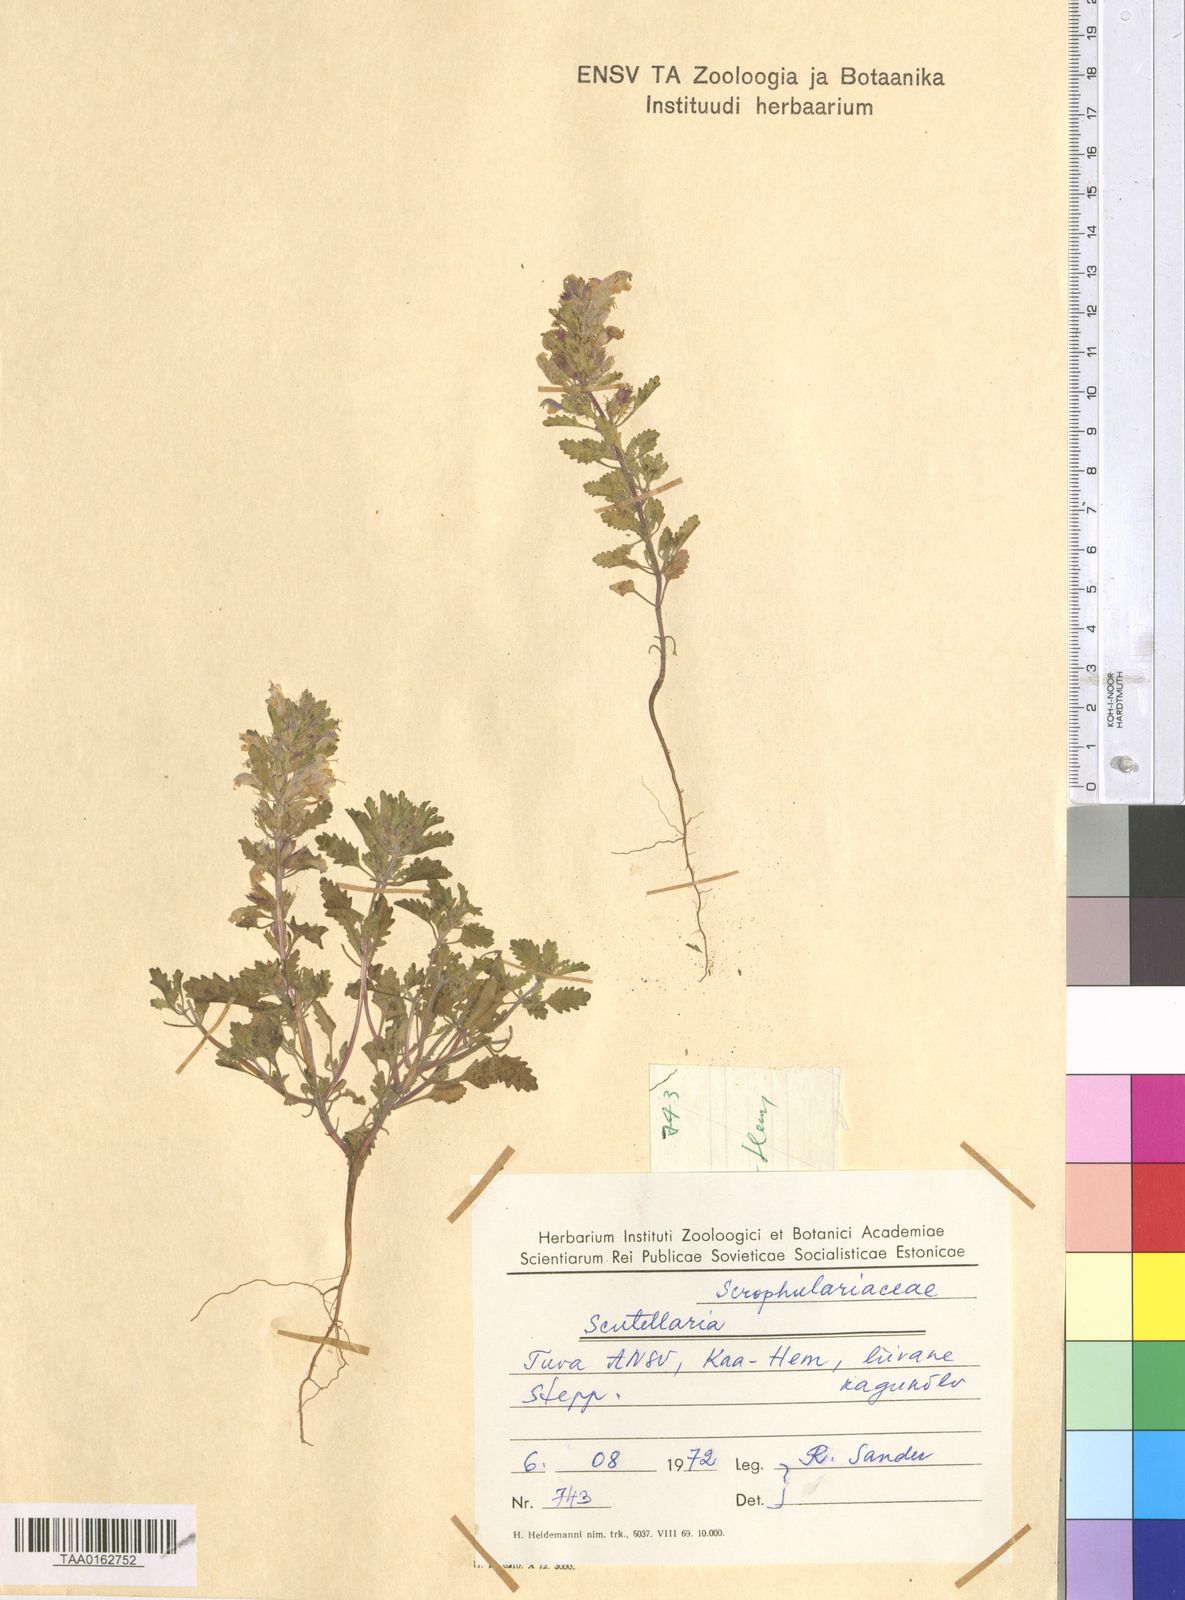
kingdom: Plantae
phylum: Tracheophyta
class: Magnoliopsida
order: Lamiales
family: Lamiaceae
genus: Scutellaria
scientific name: Scutellaria
